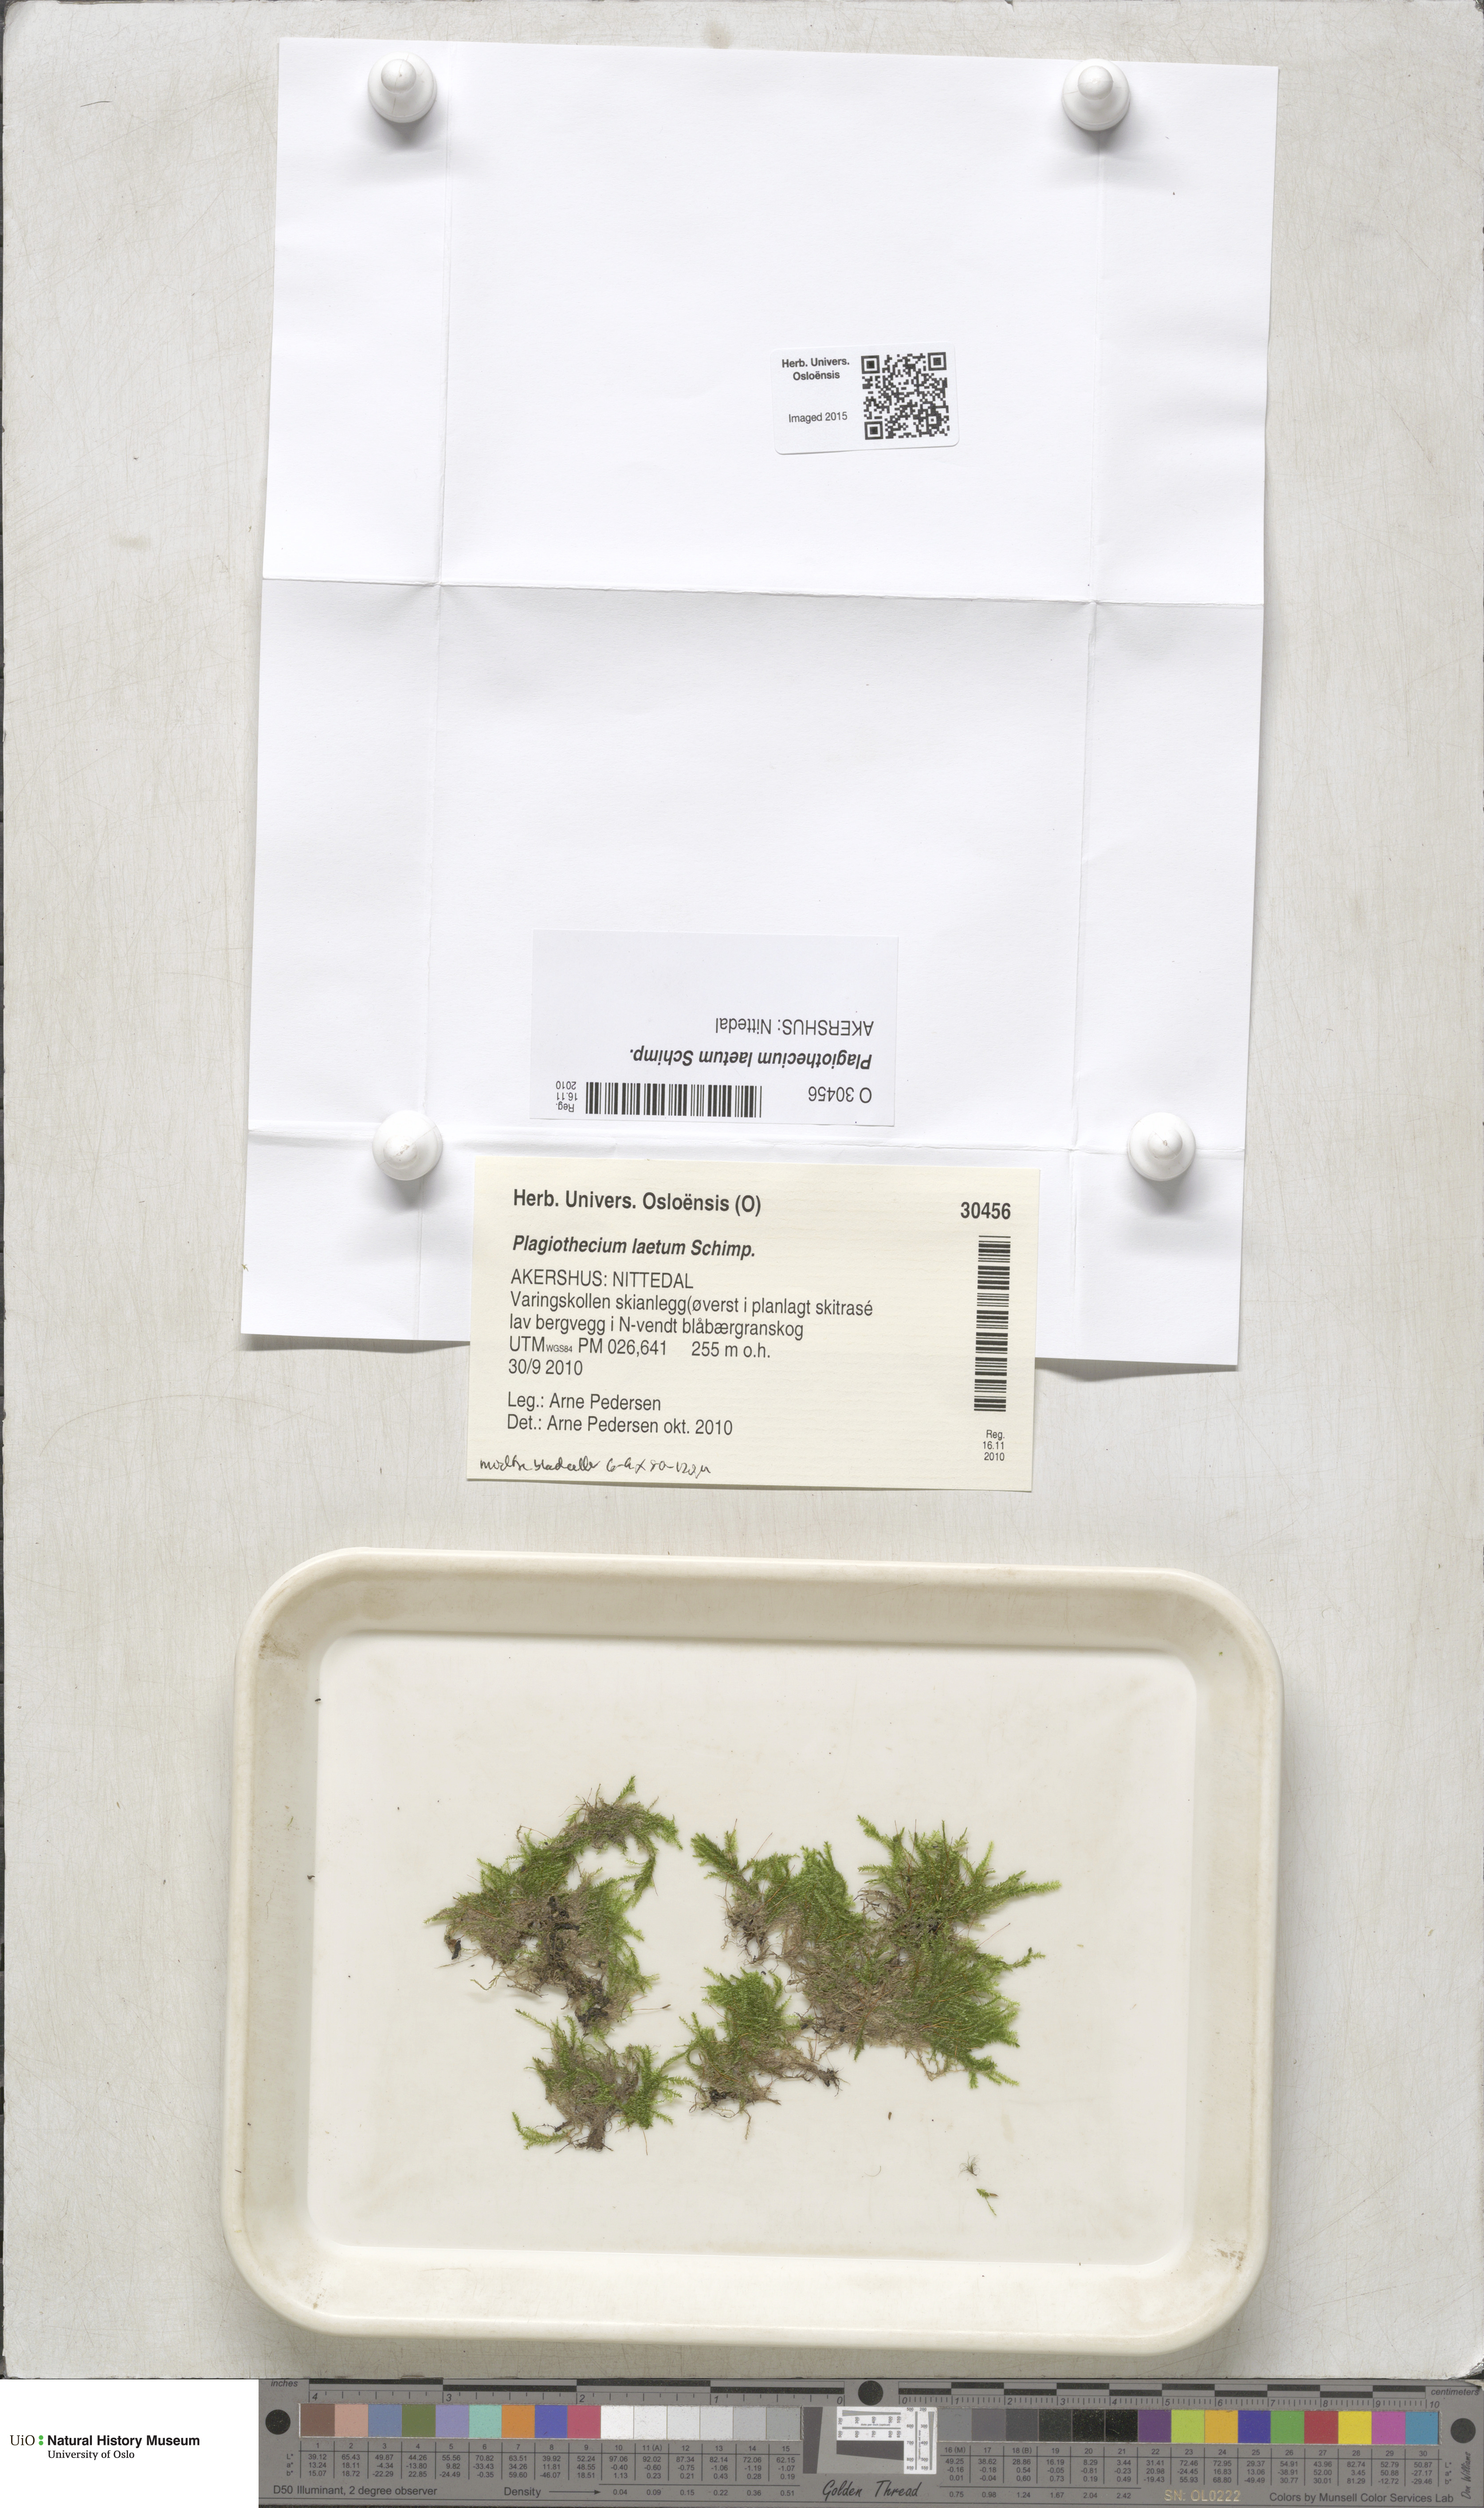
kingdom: Plantae
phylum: Bryophyta
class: Bryopsida
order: Hypnales
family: Plagiotheciaceae
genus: Plagiothecium
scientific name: Plagiothecium laetum
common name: Bright silk moss
